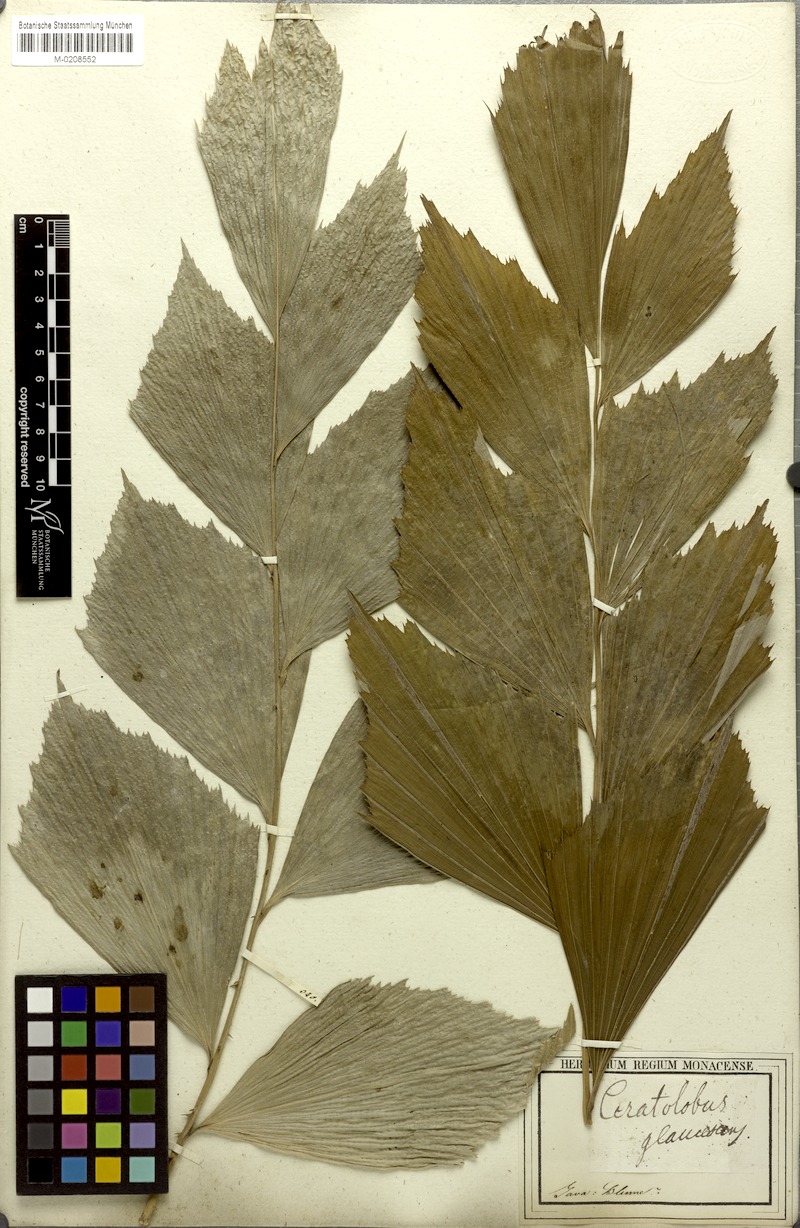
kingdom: Plantae
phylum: Tracheophyta
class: Liliopsida
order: Arecales
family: Arecaceae
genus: Calamus
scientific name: Calamus glaucescens
